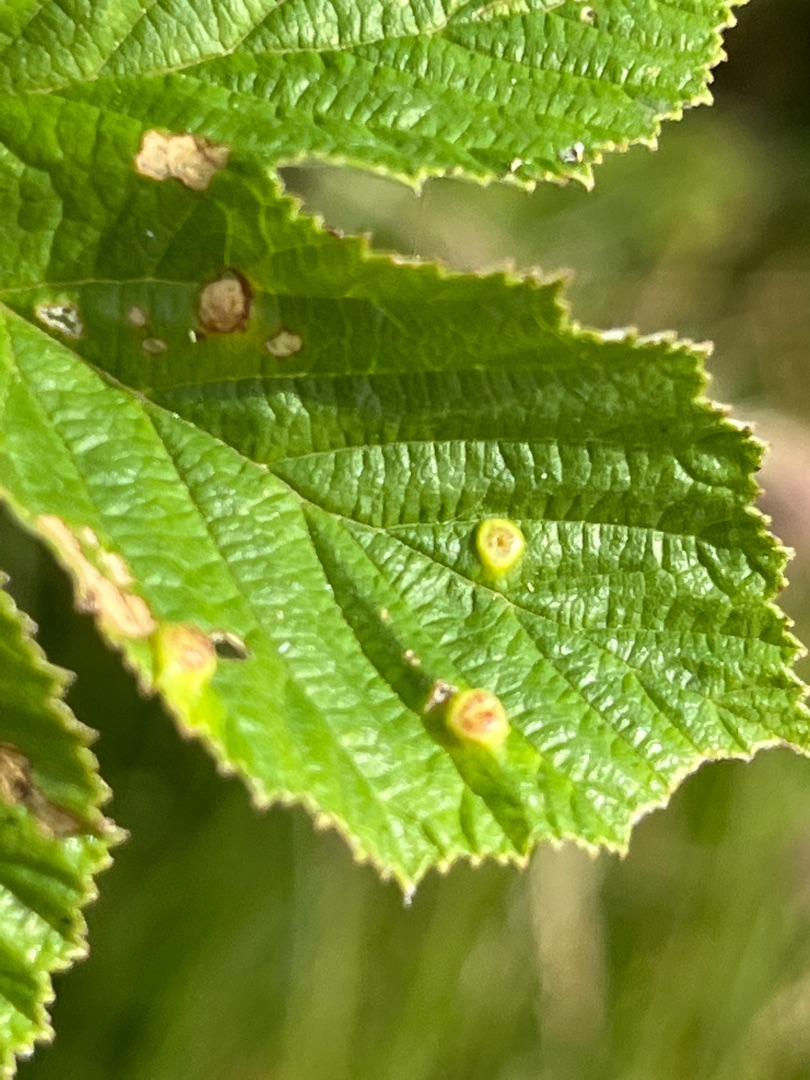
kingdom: Animalia
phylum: Arthropoda
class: Insecta
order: Diptera
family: Cecidomyiidae
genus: Dasineura
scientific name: Dasineura ulmaria
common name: Mjødurtgalmyg
